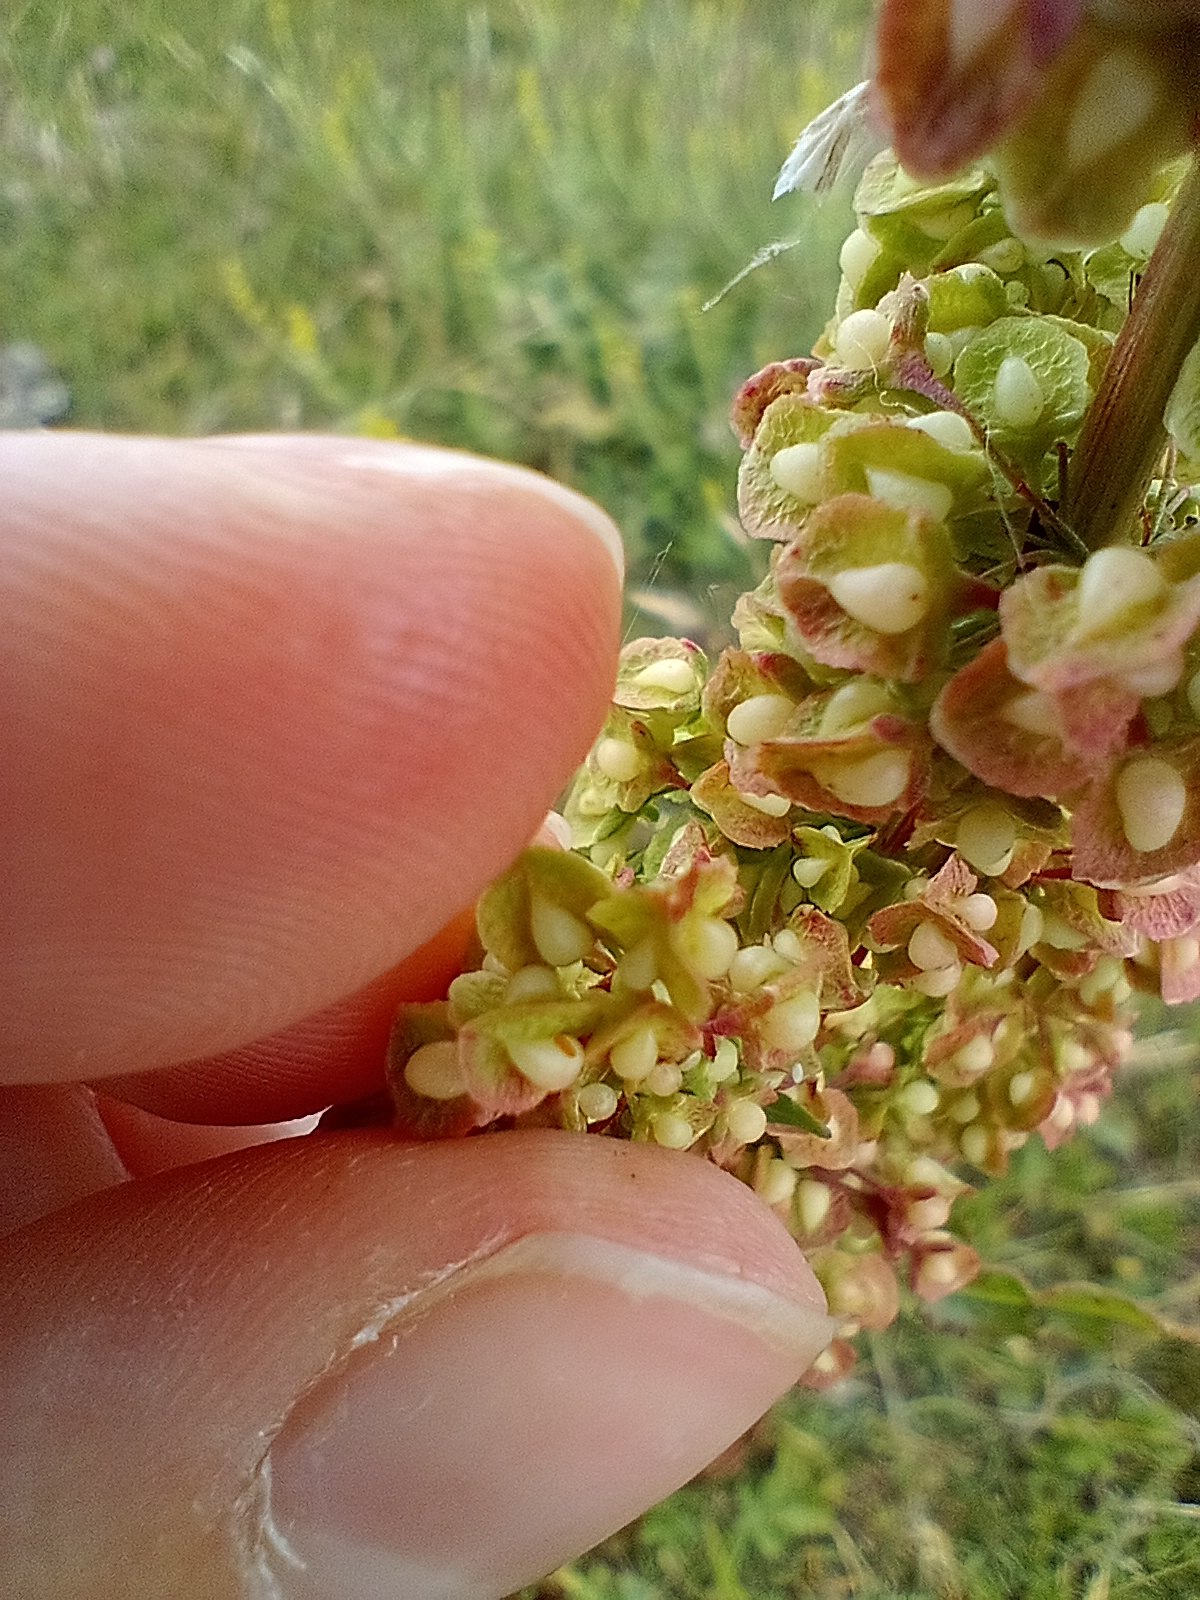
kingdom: Plantae
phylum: Tracheophyta
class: Magnoliopsida
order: Caryophyllales
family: Polygonaceae
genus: Rumex
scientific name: Rumex crispus
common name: Kruset skræppe
